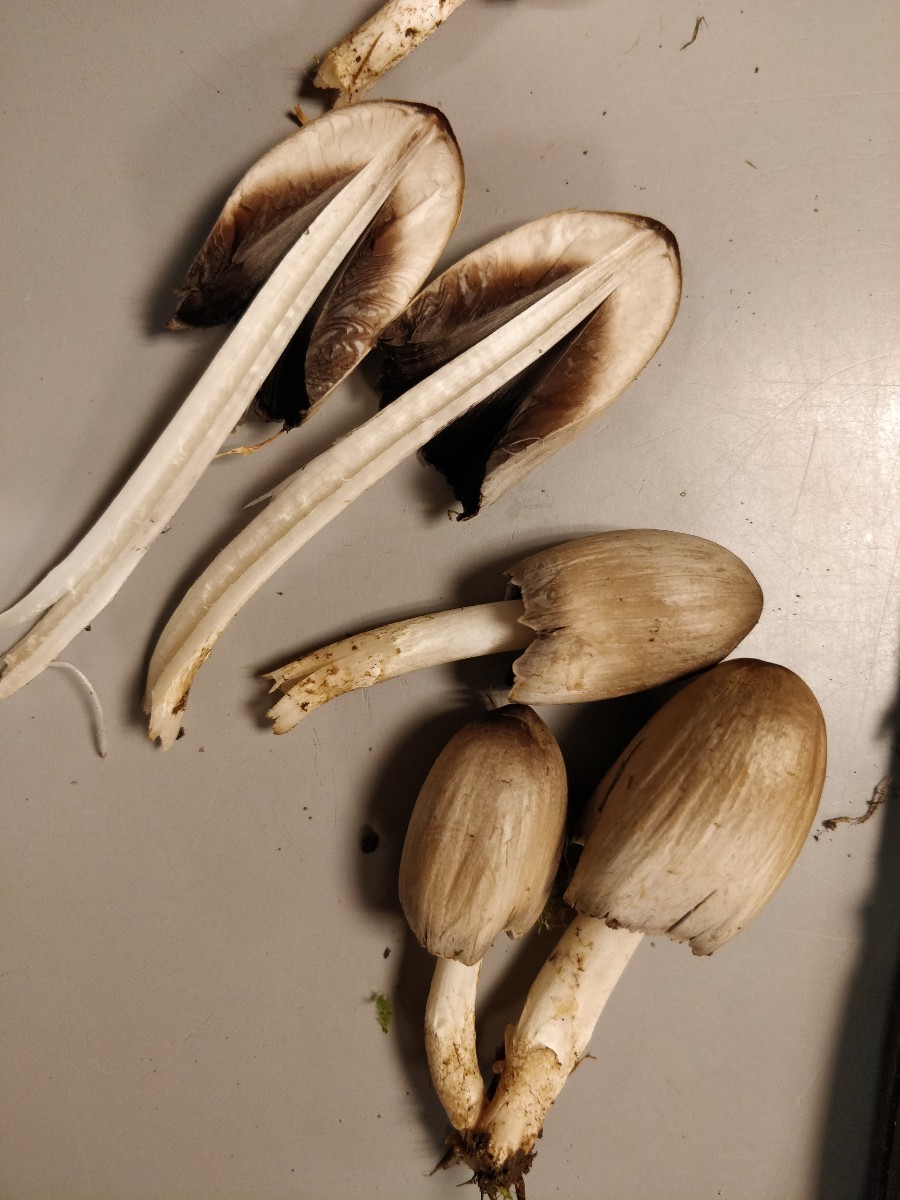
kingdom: Fungi
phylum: Basidiomycota
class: Agaricomycetes
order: Agaricales
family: Psathyrellaceae
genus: Coprinopsis
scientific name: Coprinopsis atramentaria
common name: almindelig blækhat
